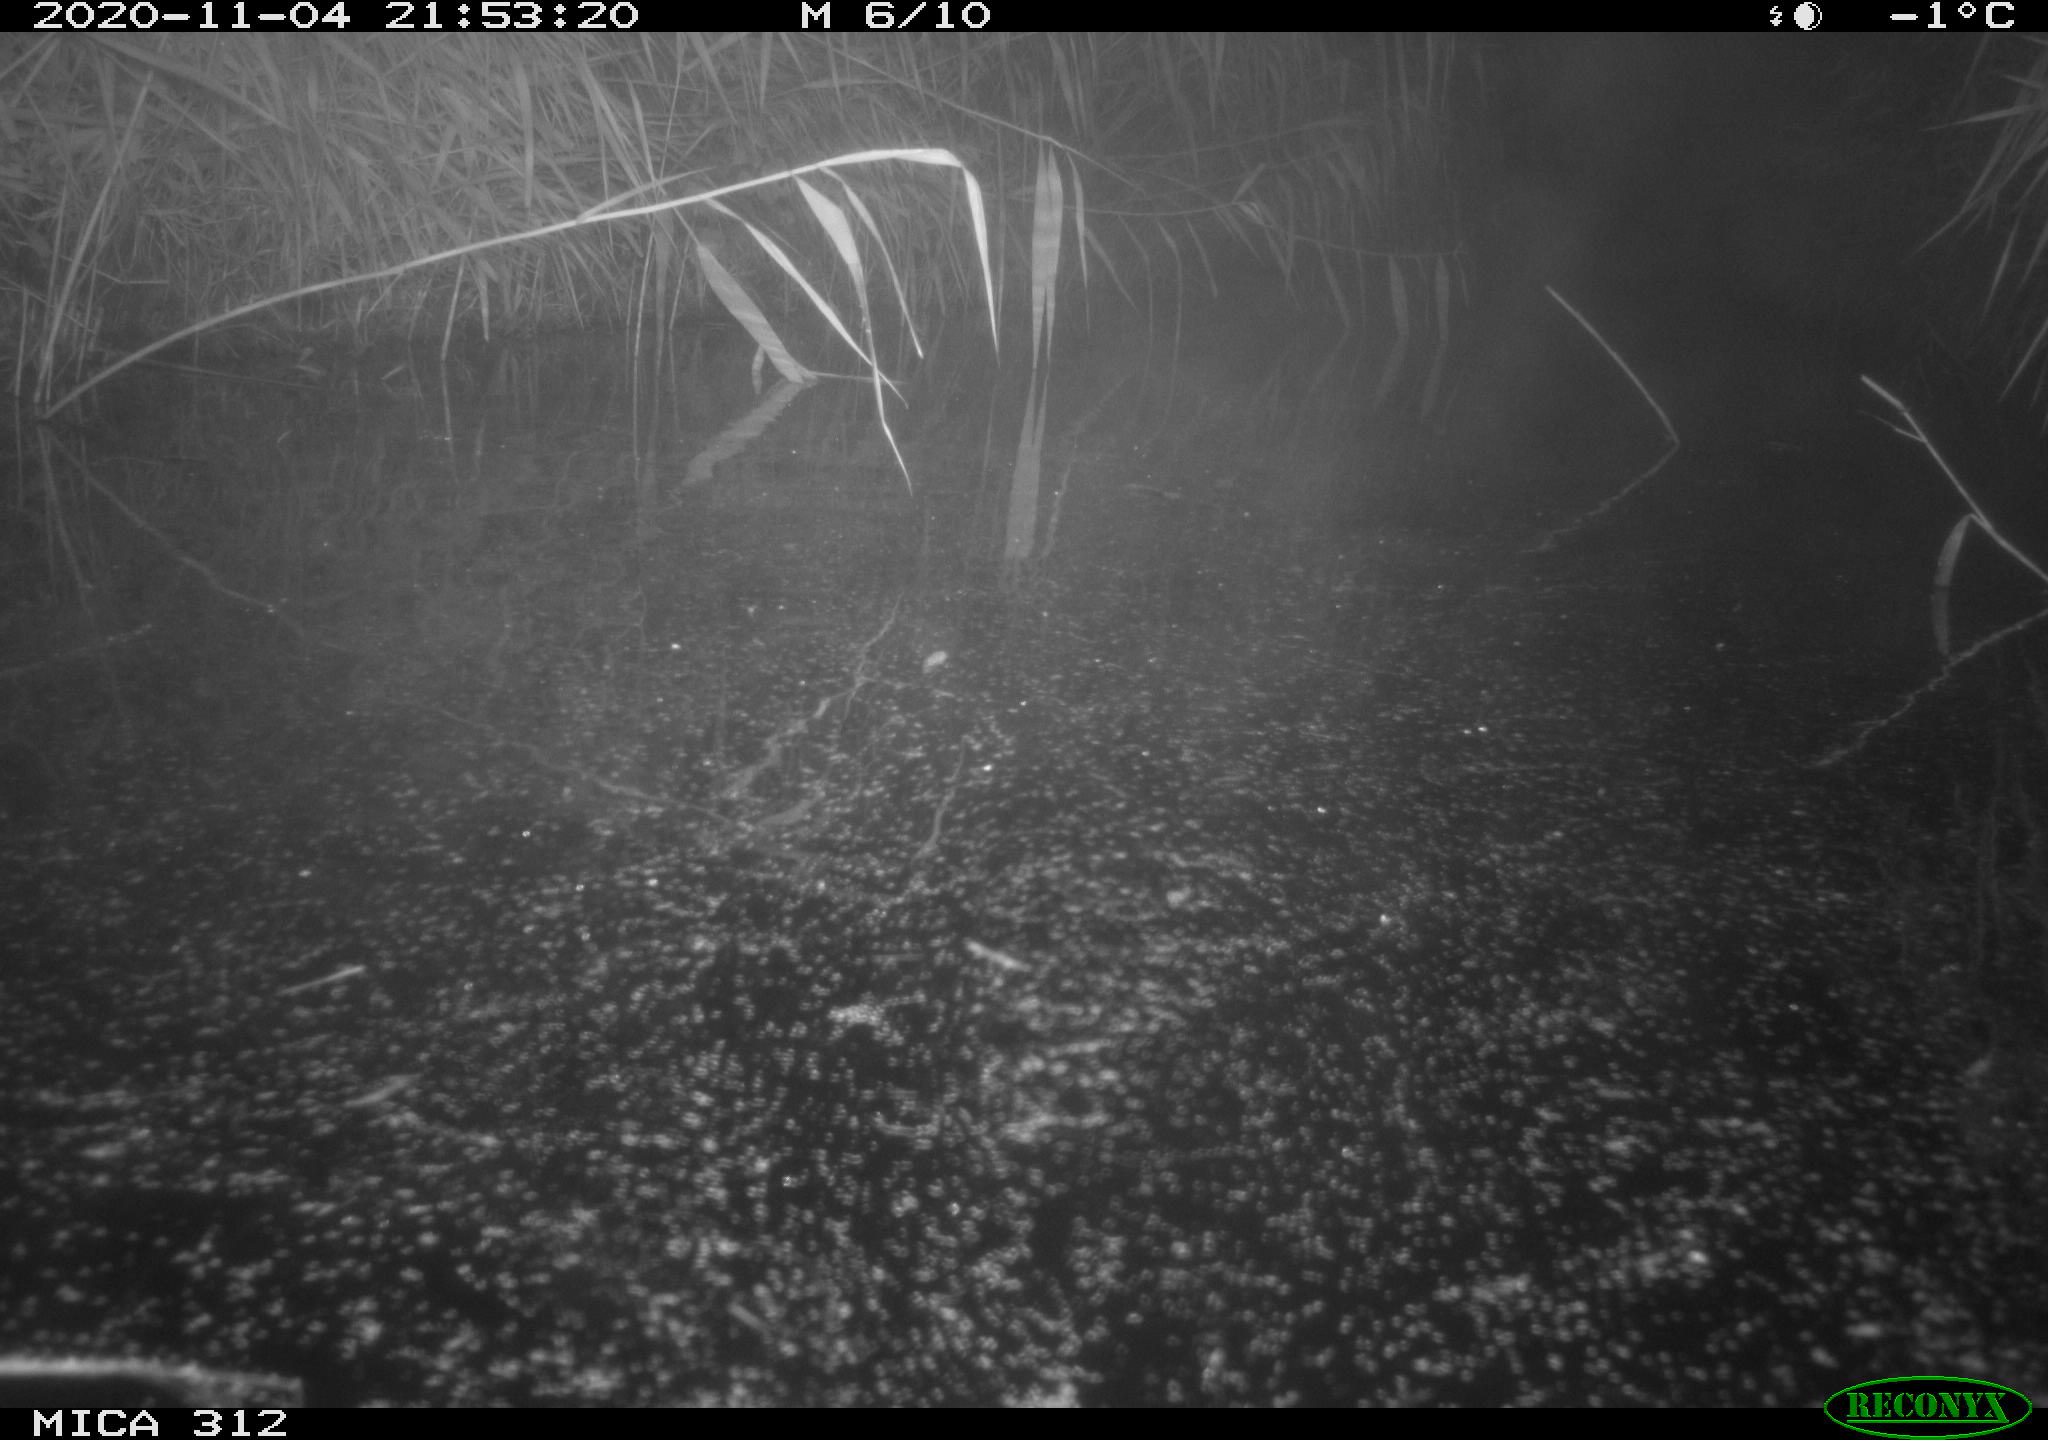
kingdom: Animalia
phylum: Chordata
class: Mammalia
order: Rodentia
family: Muridae
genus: Rattus
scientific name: Rattus norvegicus
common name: Brown rat
